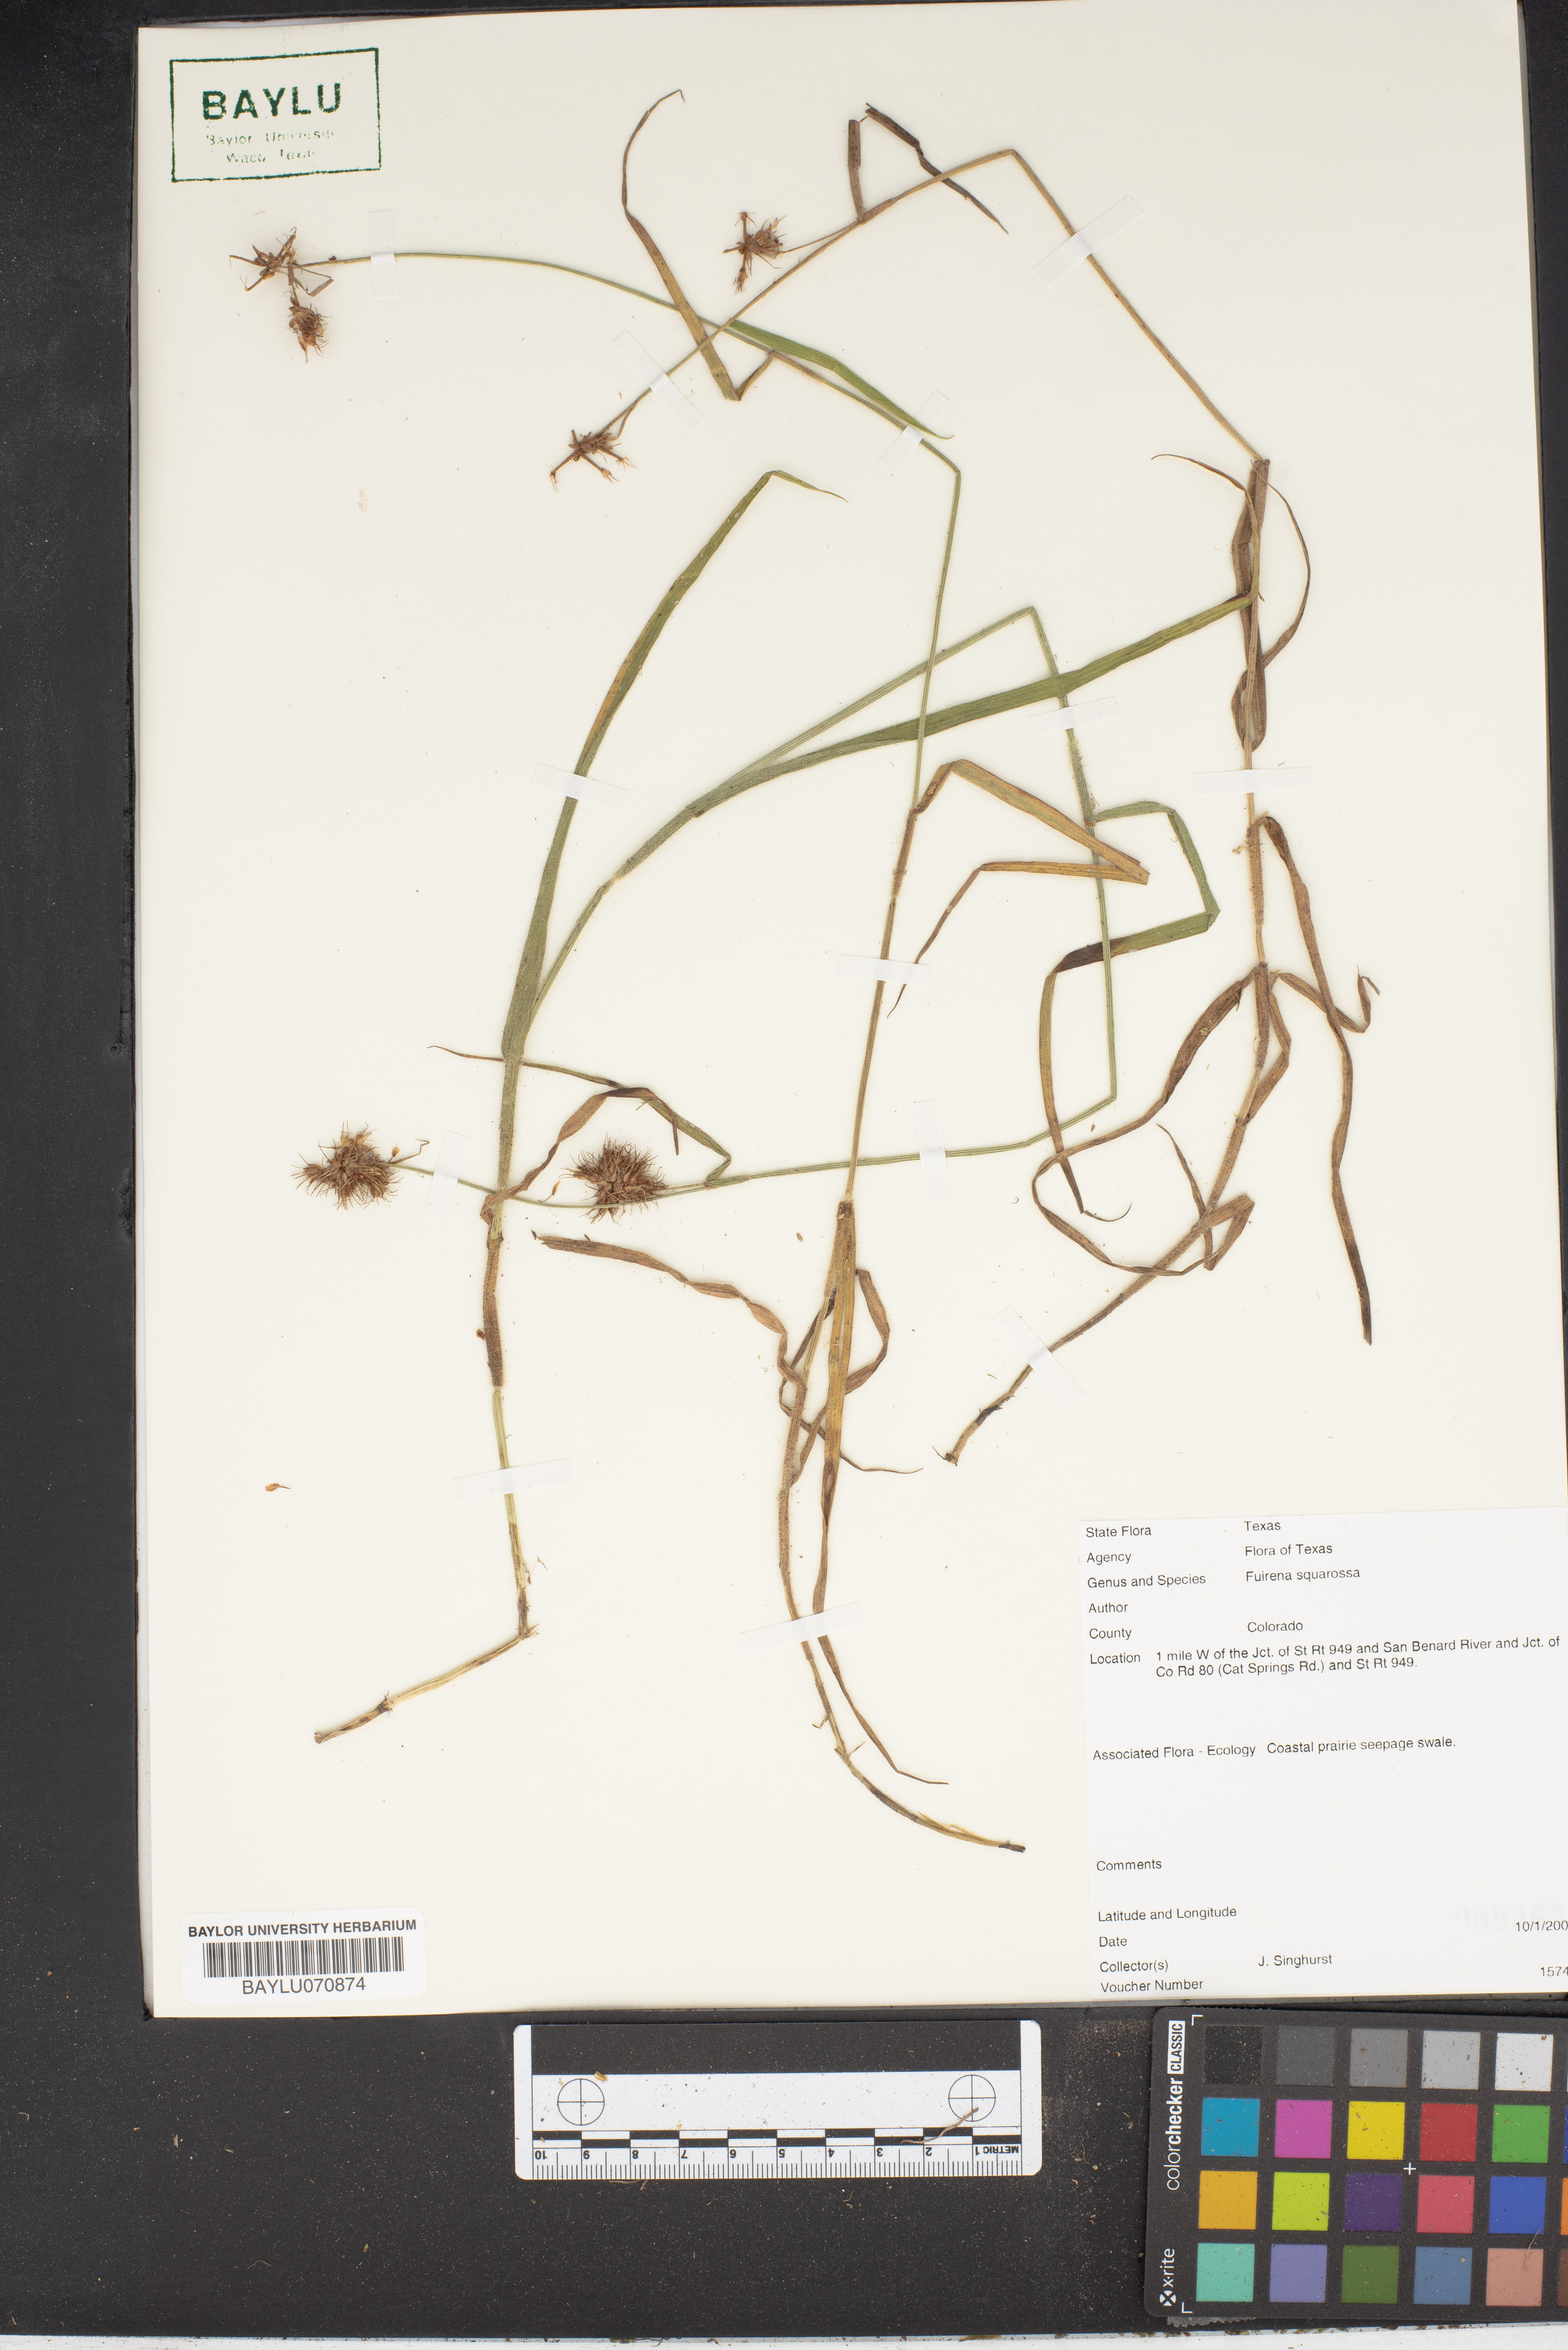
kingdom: Plantae
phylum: Tracheophyta
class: Liliopsida
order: Poales
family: Cyperaceae
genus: Fuirena
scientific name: Fuirena squarrosa
